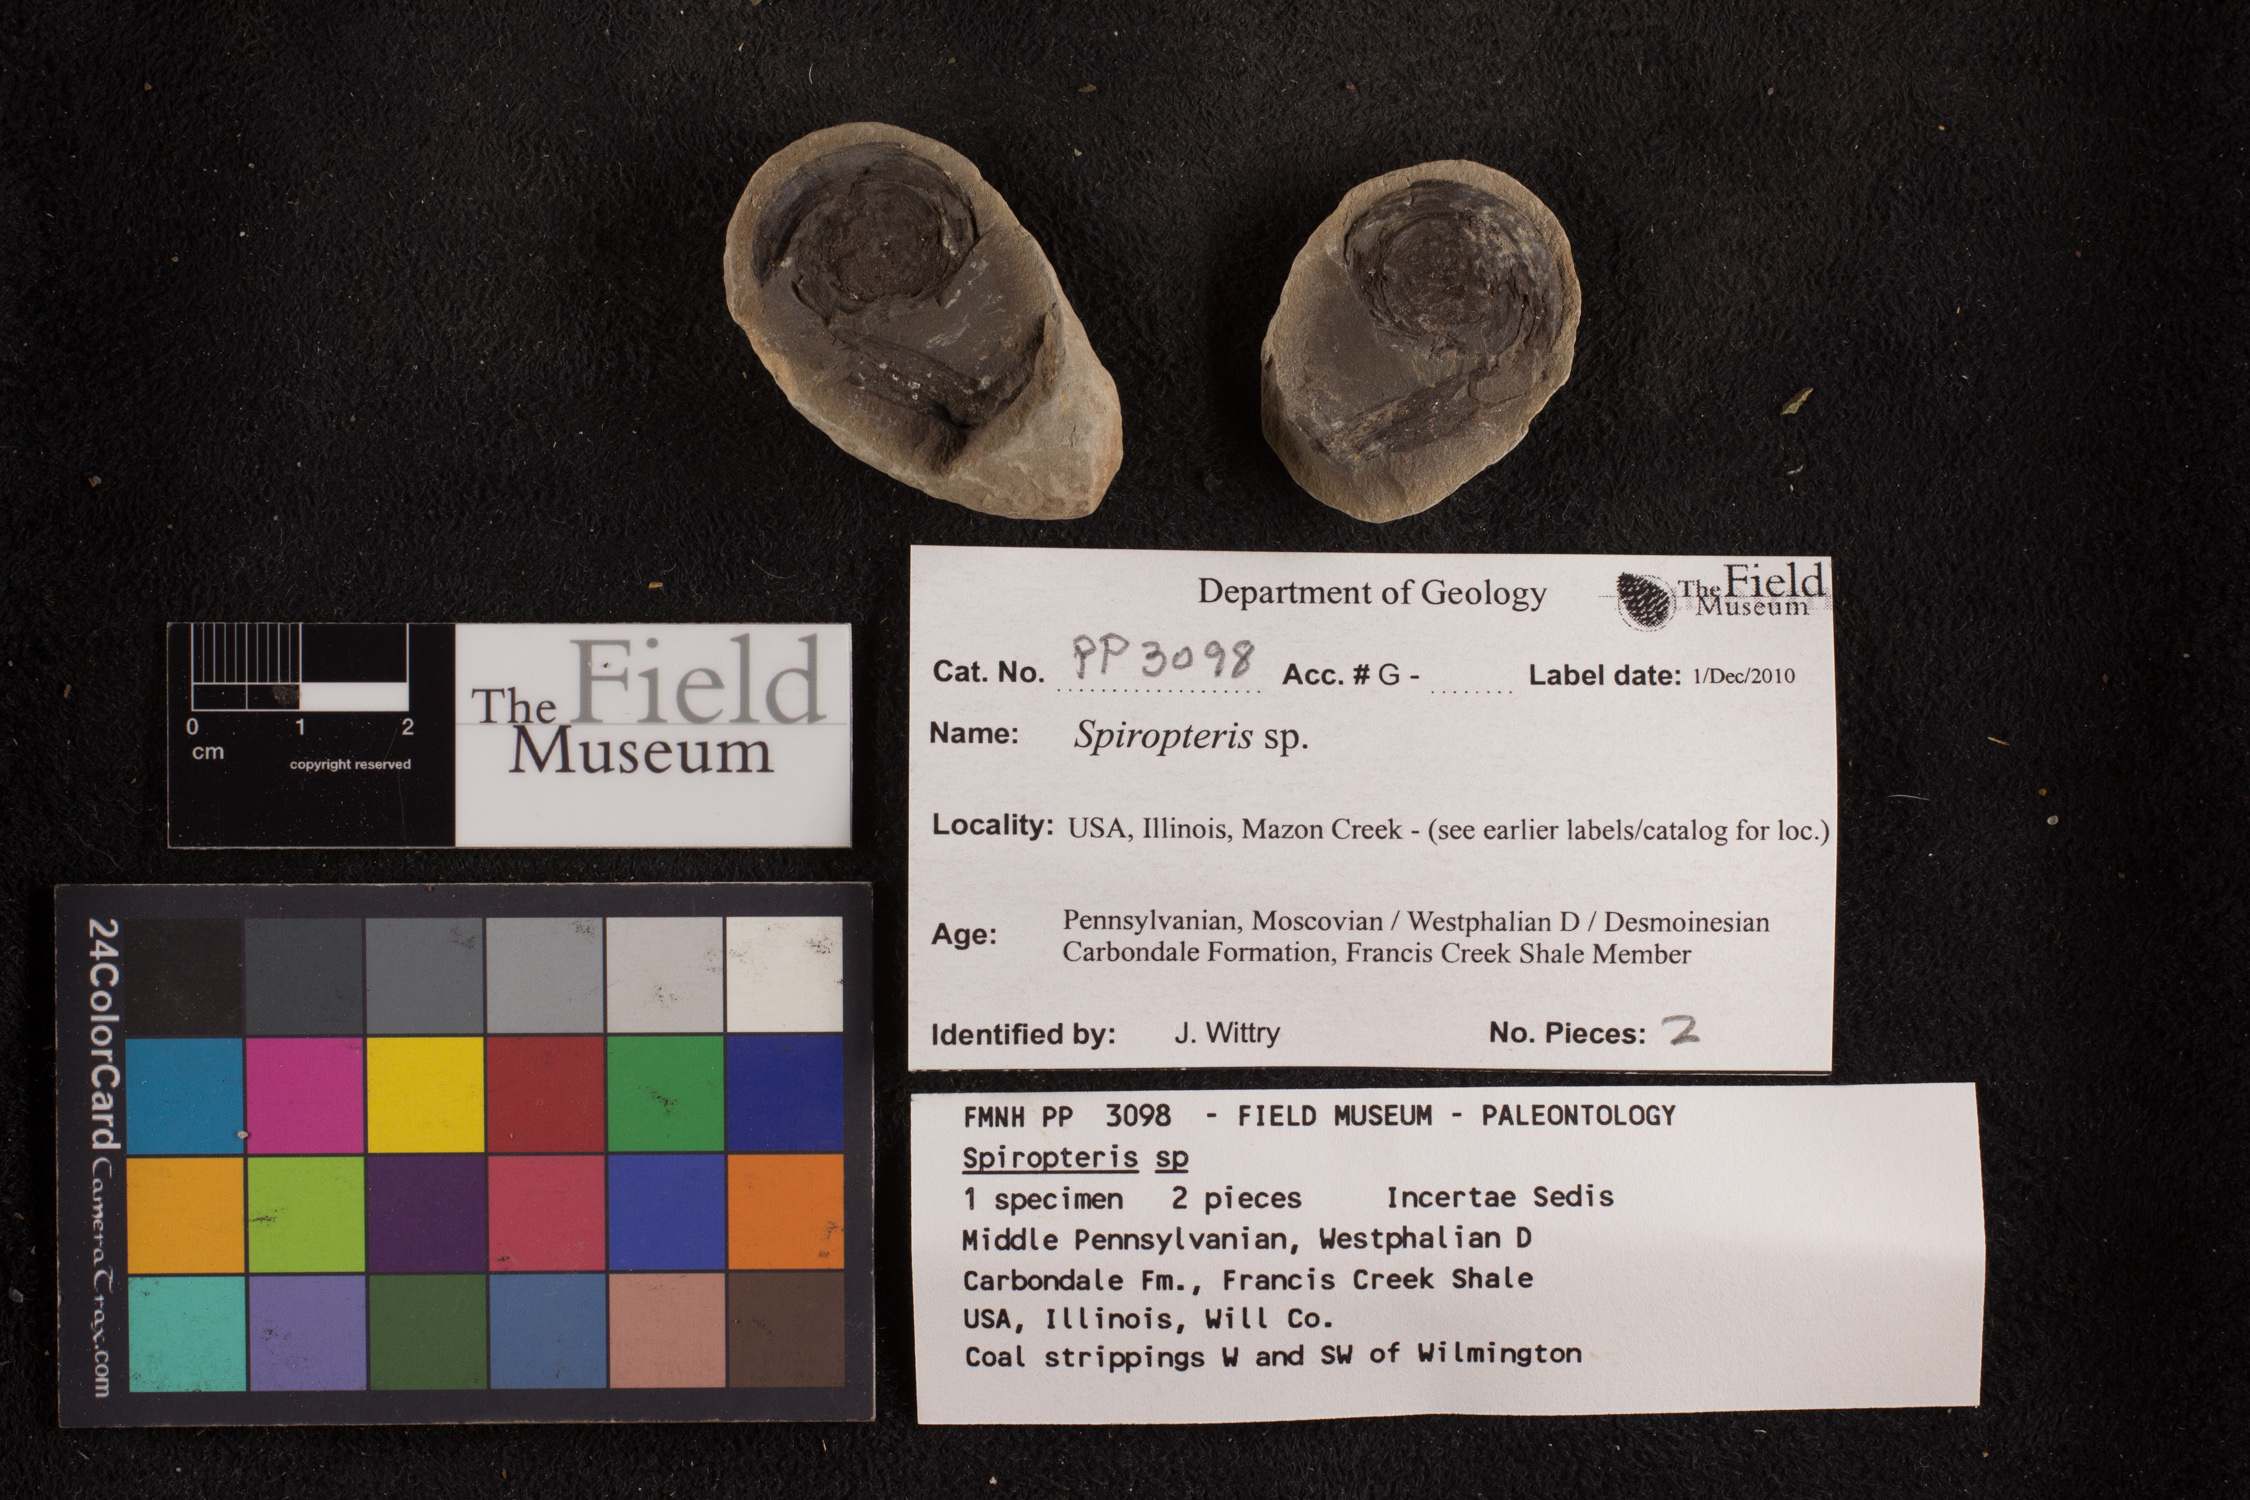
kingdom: Plantae
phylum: Tracheophyta
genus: Spiropteris
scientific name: Spiropteris
